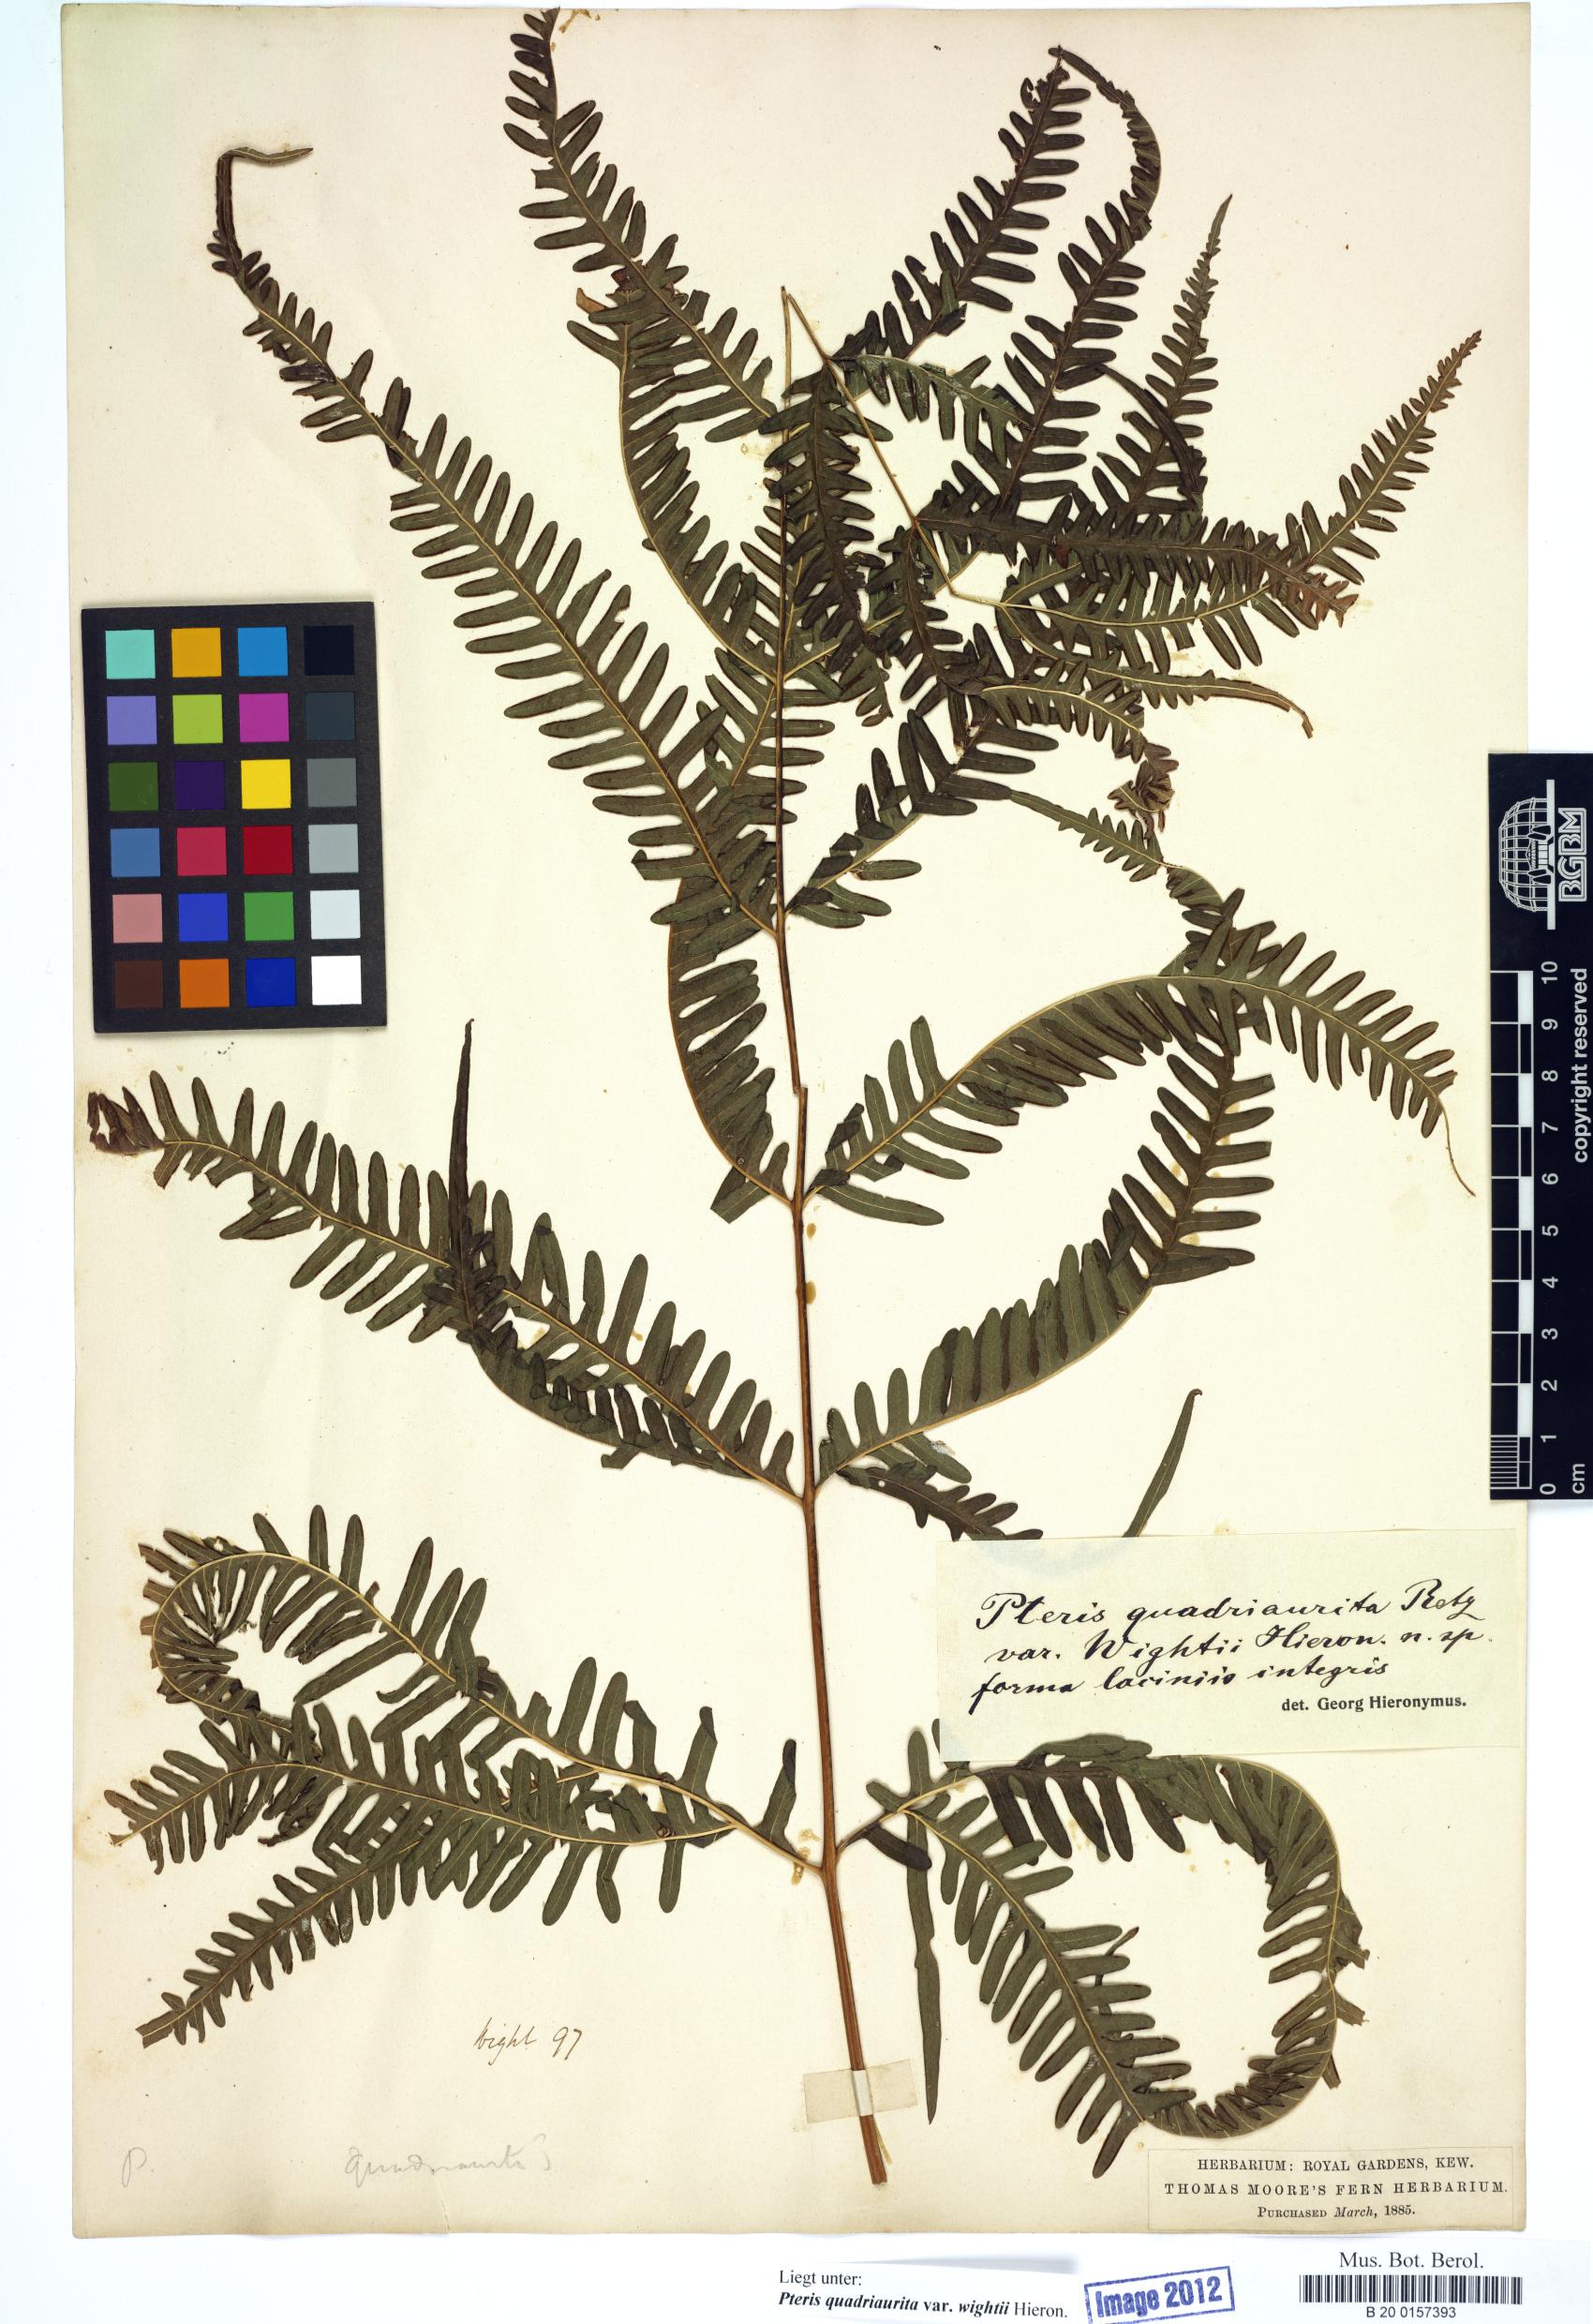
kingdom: Plantae
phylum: Tracheophyta
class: Polypodiopsida
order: Polypodiales
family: Pteridaceae
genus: Pteris
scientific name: Pteris quadriaurita
